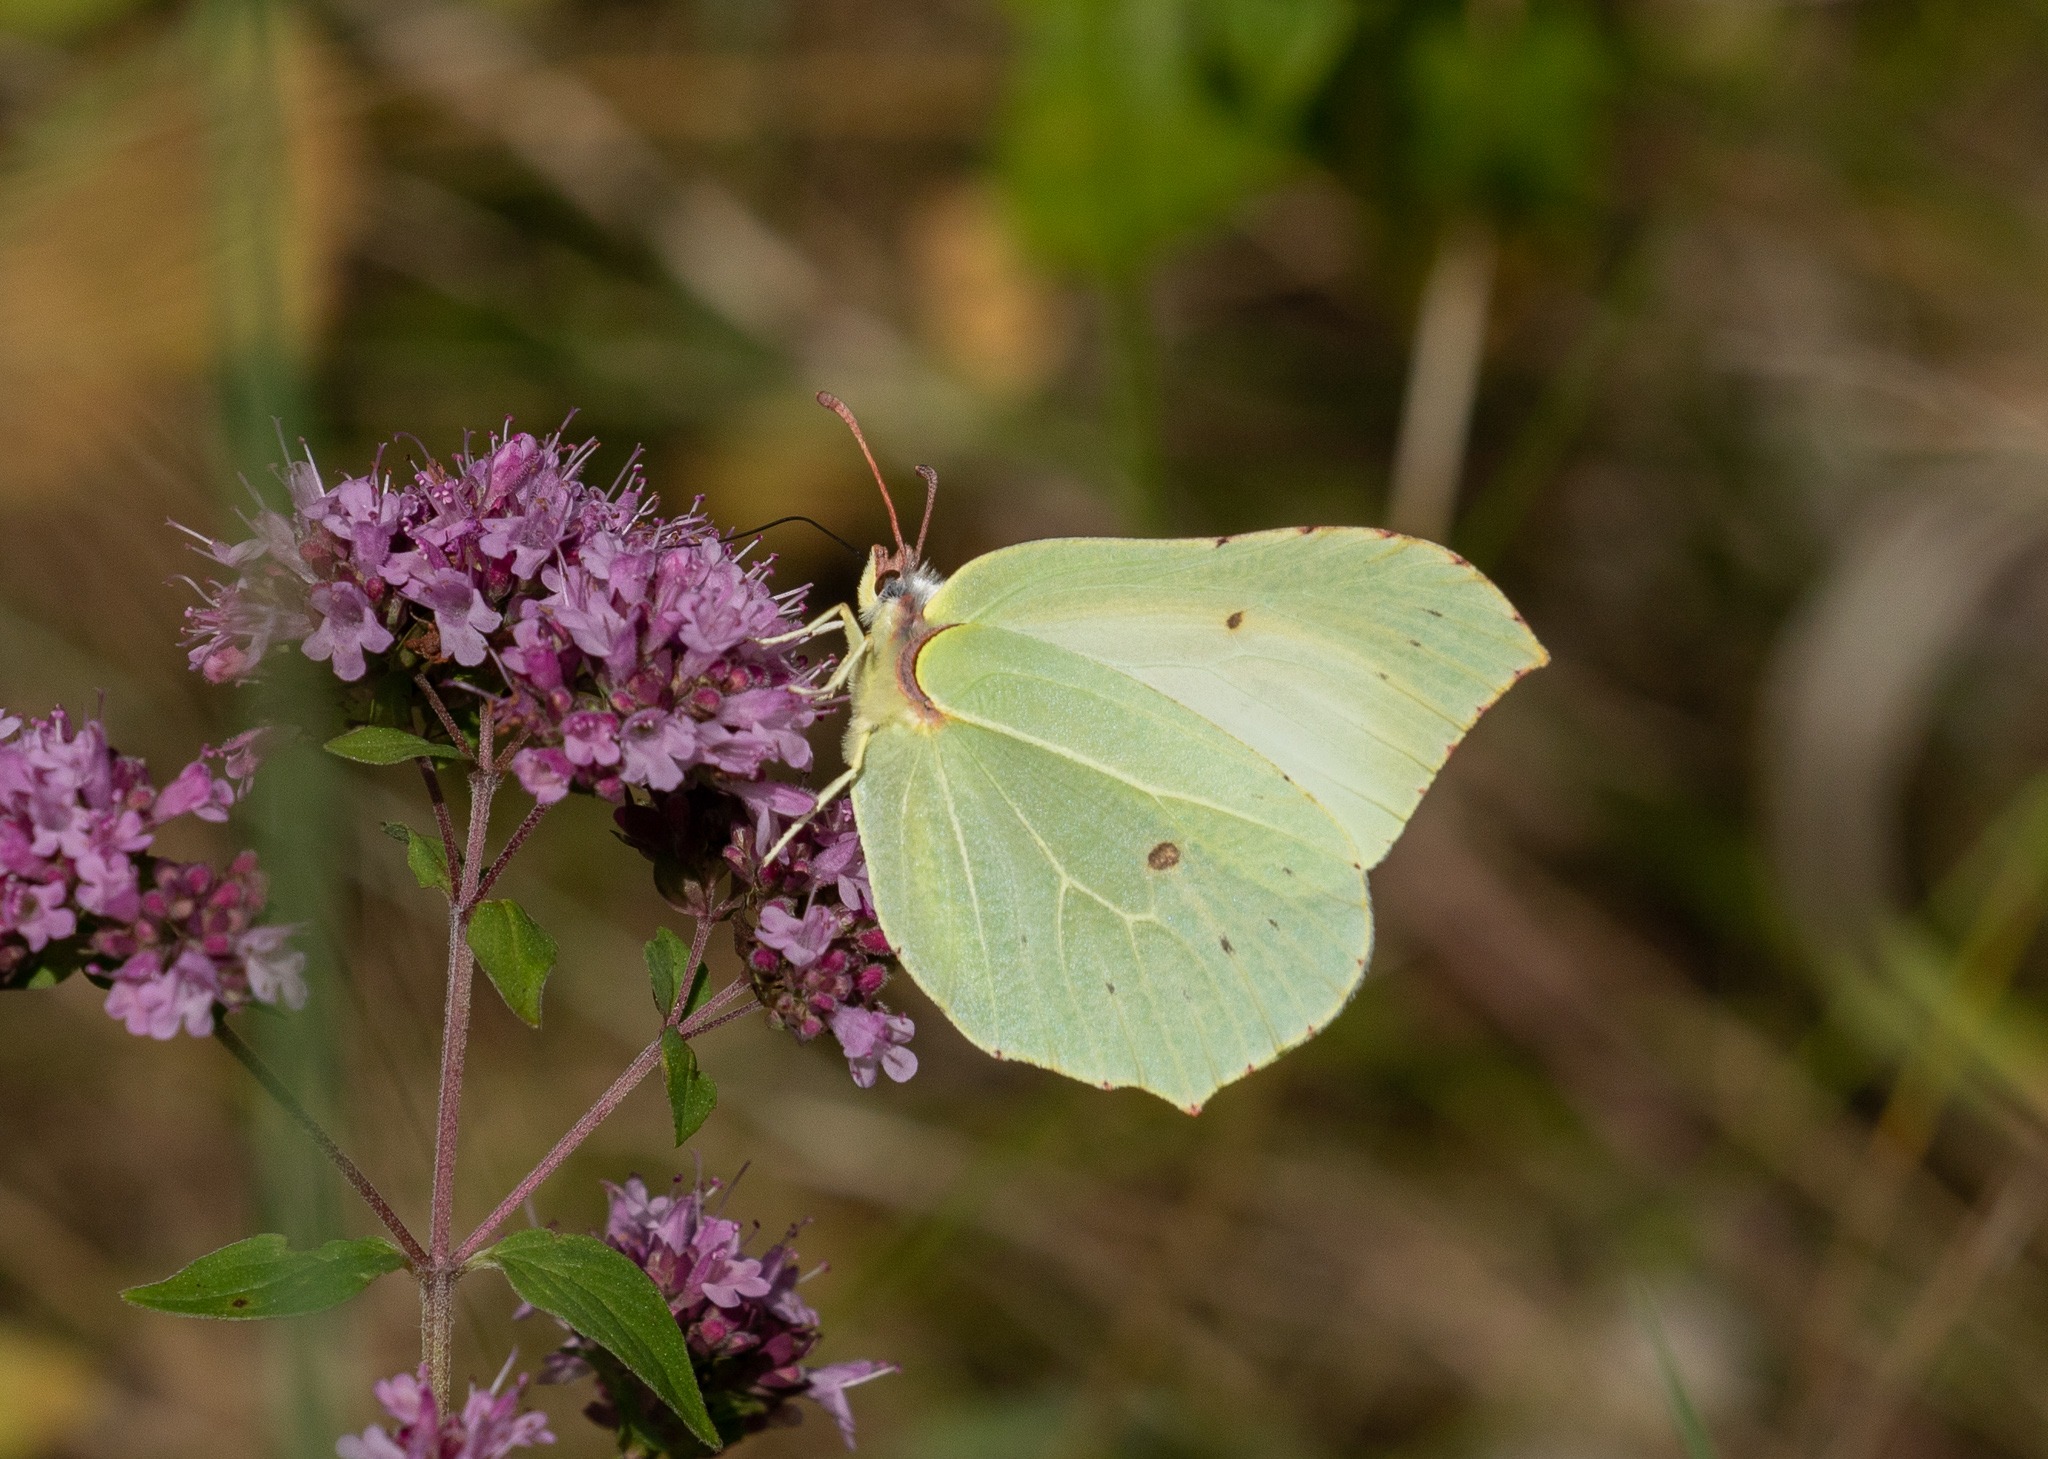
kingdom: Animalia
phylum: Arthropoda
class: Insecta
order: Lepidoptera
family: Pieridae
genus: Gonepteryx
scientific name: Gonepteryx rhamni
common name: Citronsommerfugl
